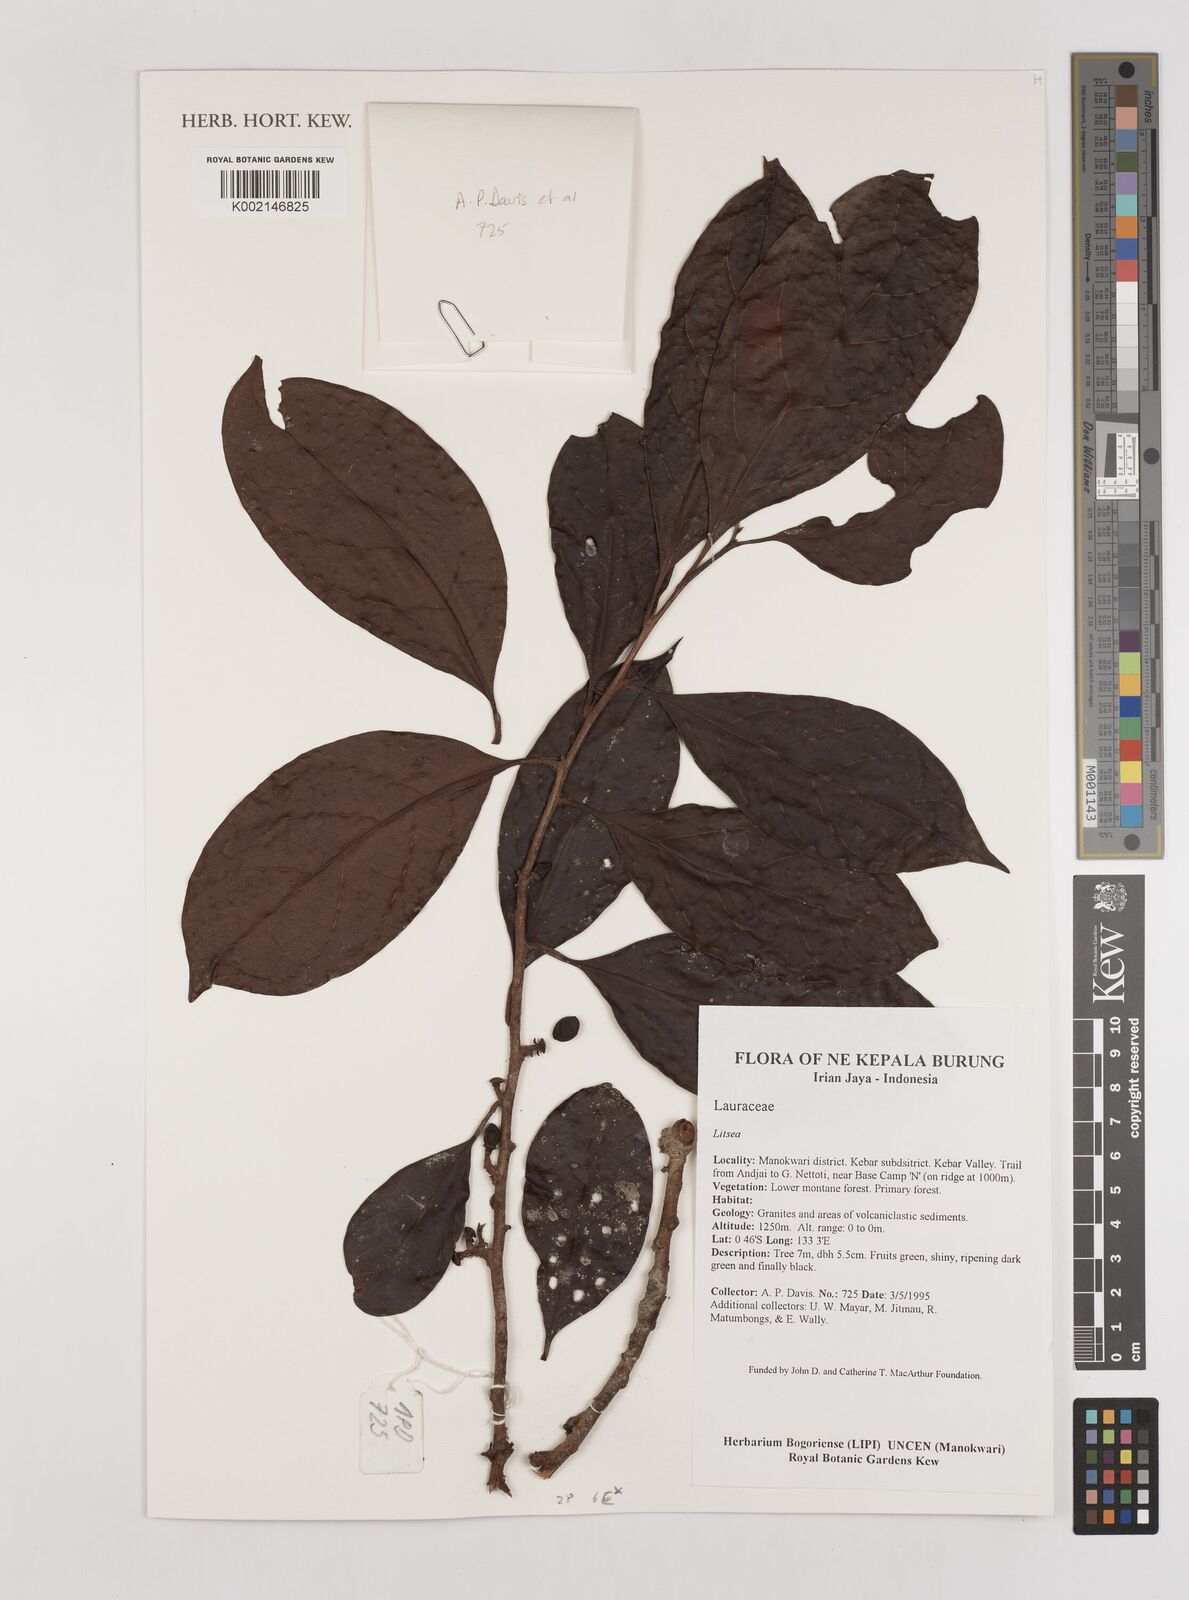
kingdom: Plantae
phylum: Tracheophyta
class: Magnoliopsida
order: Laurales
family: Lauraceae
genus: Litsea
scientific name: Litsea
